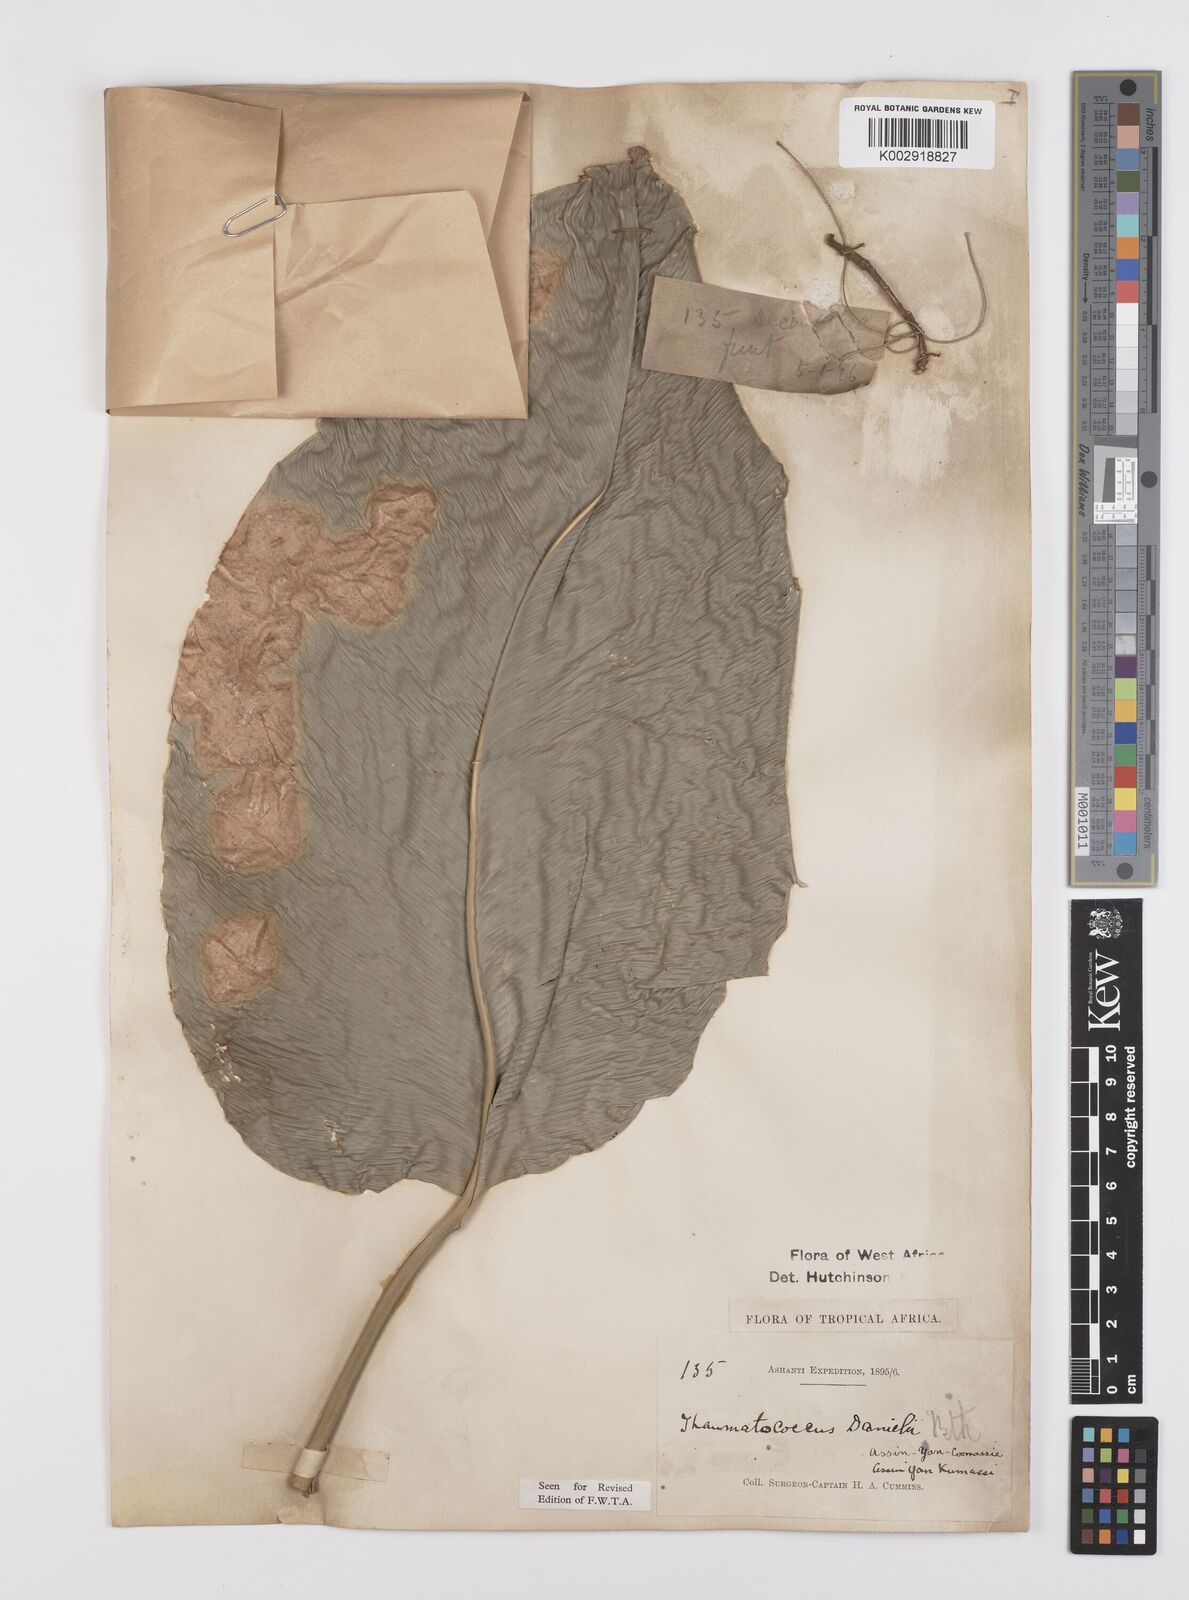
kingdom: Plantae
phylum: Tracheophyta
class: Liliopsida
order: Zingiberales
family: Marantaceae
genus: Thaumatococcus
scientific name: Thaumatococcus daniellii
